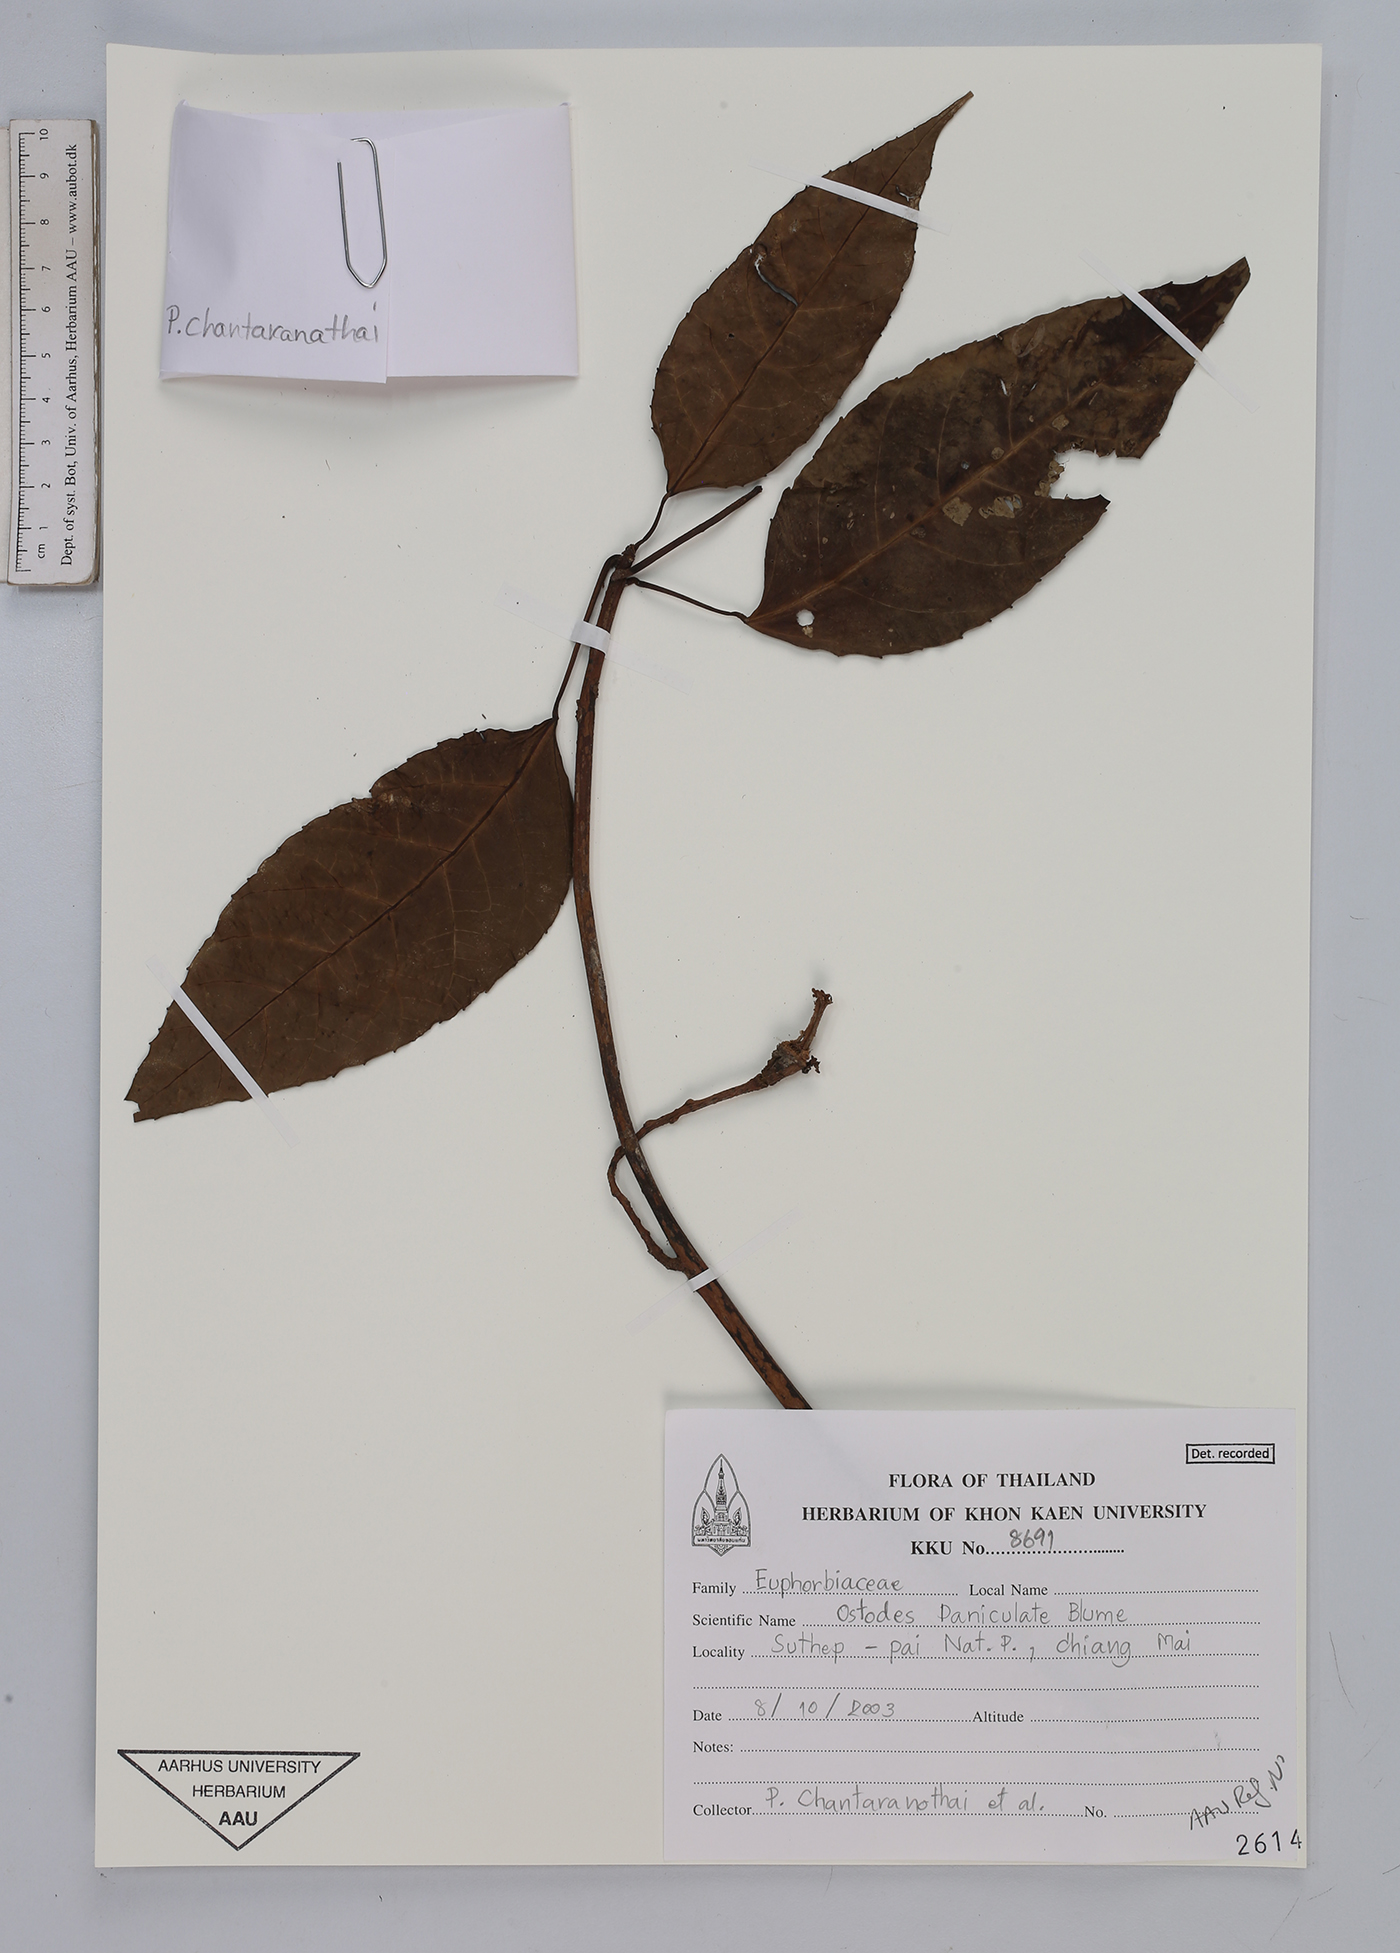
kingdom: Plantae
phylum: Tracheophyta
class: Magnoliopsida
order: Malpighiales
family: Euphorbiaceae
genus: Ostodes
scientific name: Ostodes paniculata
